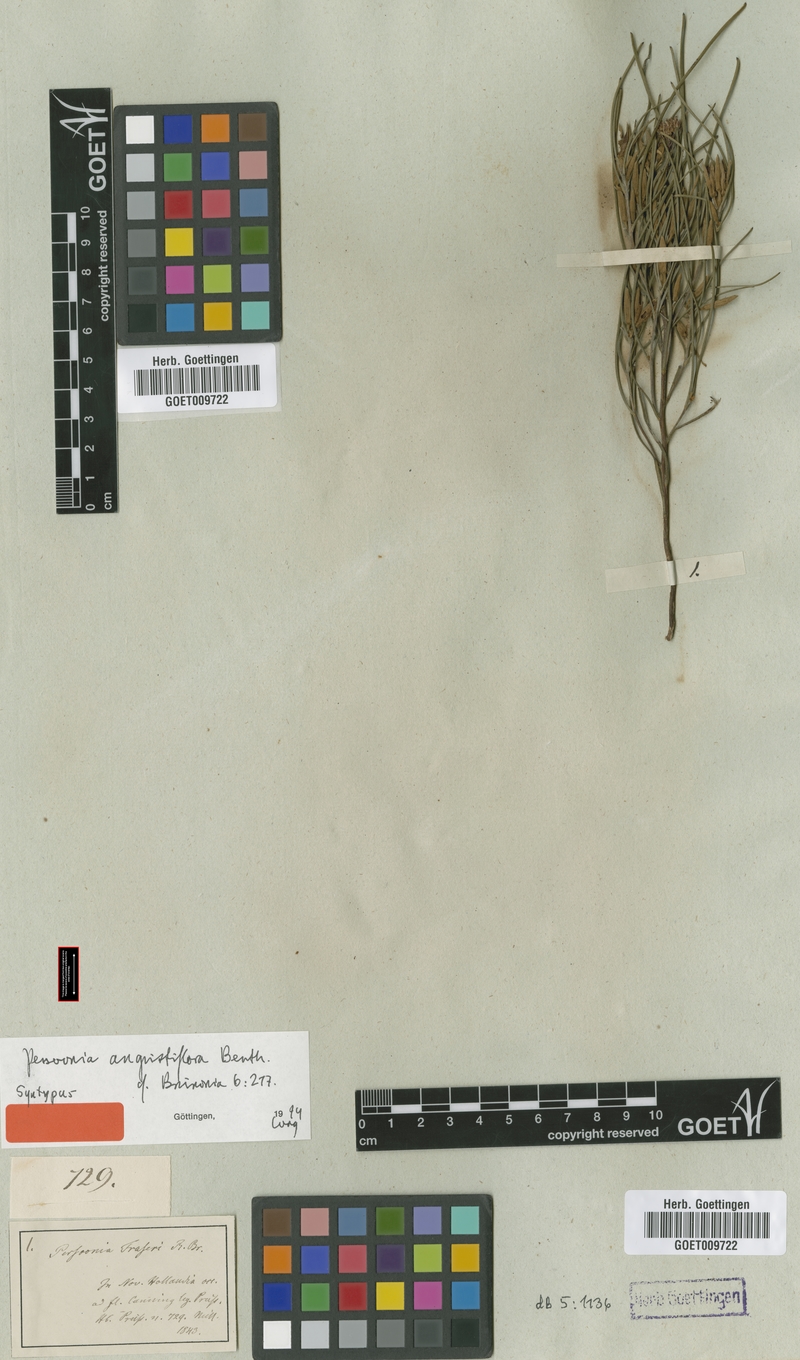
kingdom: Plantae
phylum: Tracheophyta
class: Magnoliopsida
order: Proteales
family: Proteaceae
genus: Persoonia
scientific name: Persoonia angustiflora
